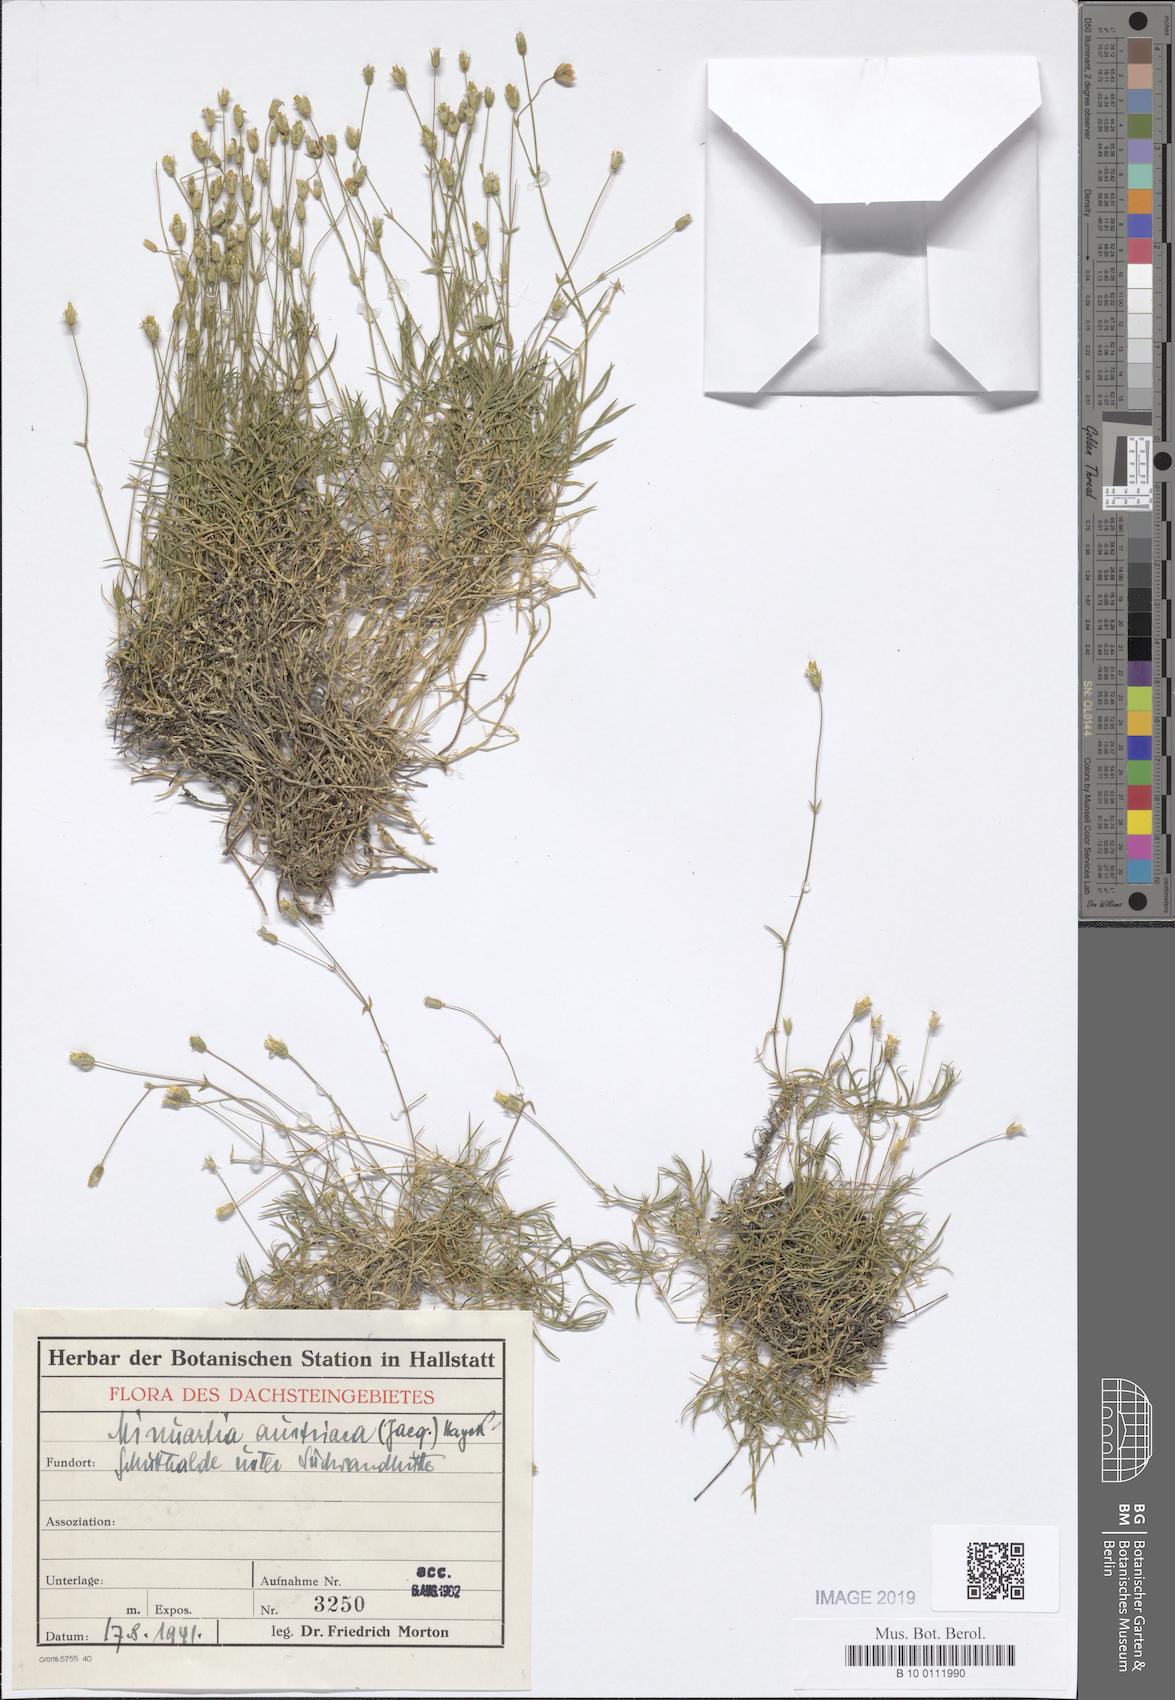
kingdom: Plantae
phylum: Tracheophyta
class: Magnoliopsida
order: Caryophyllales
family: Caryophyllaceae
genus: Sabulina
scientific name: Sabulina austriaca
